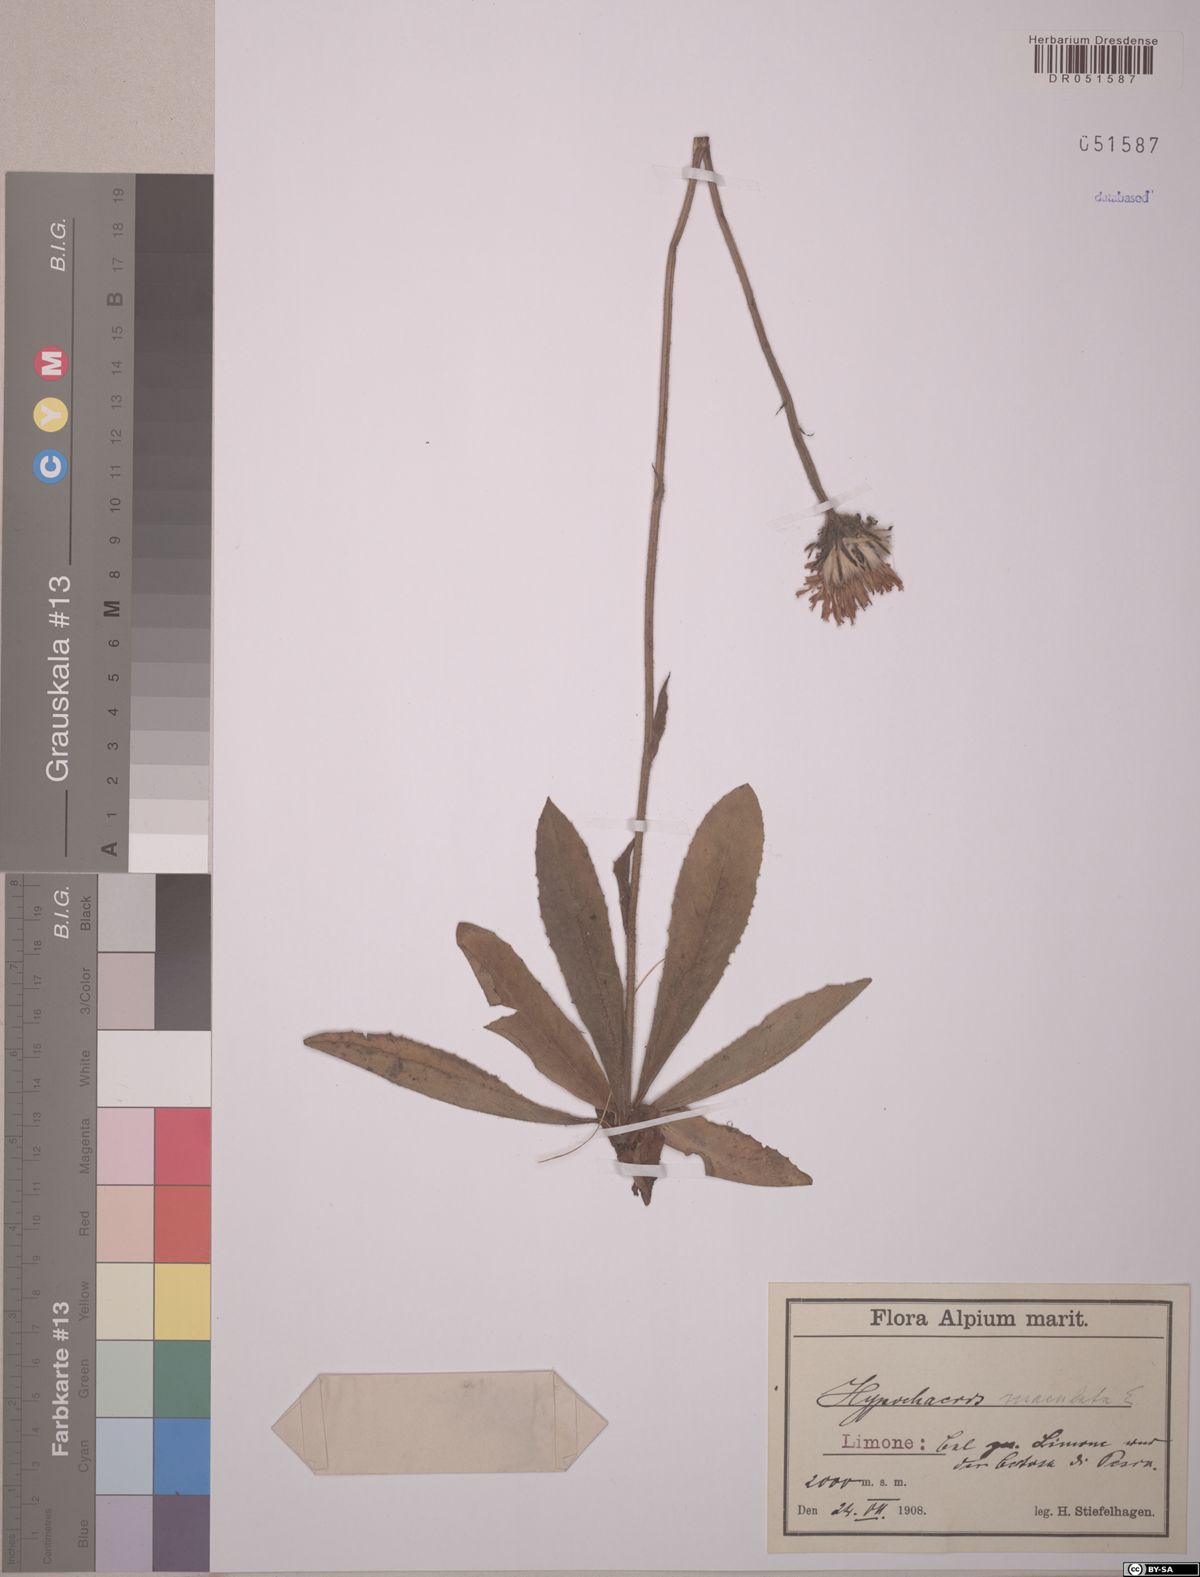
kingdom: Plantae
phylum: Tracheophyta
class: Magnoliopsida
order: Asterales
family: Asteraceae
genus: Trommsdorffia
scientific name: Trommsdorffia maculata
